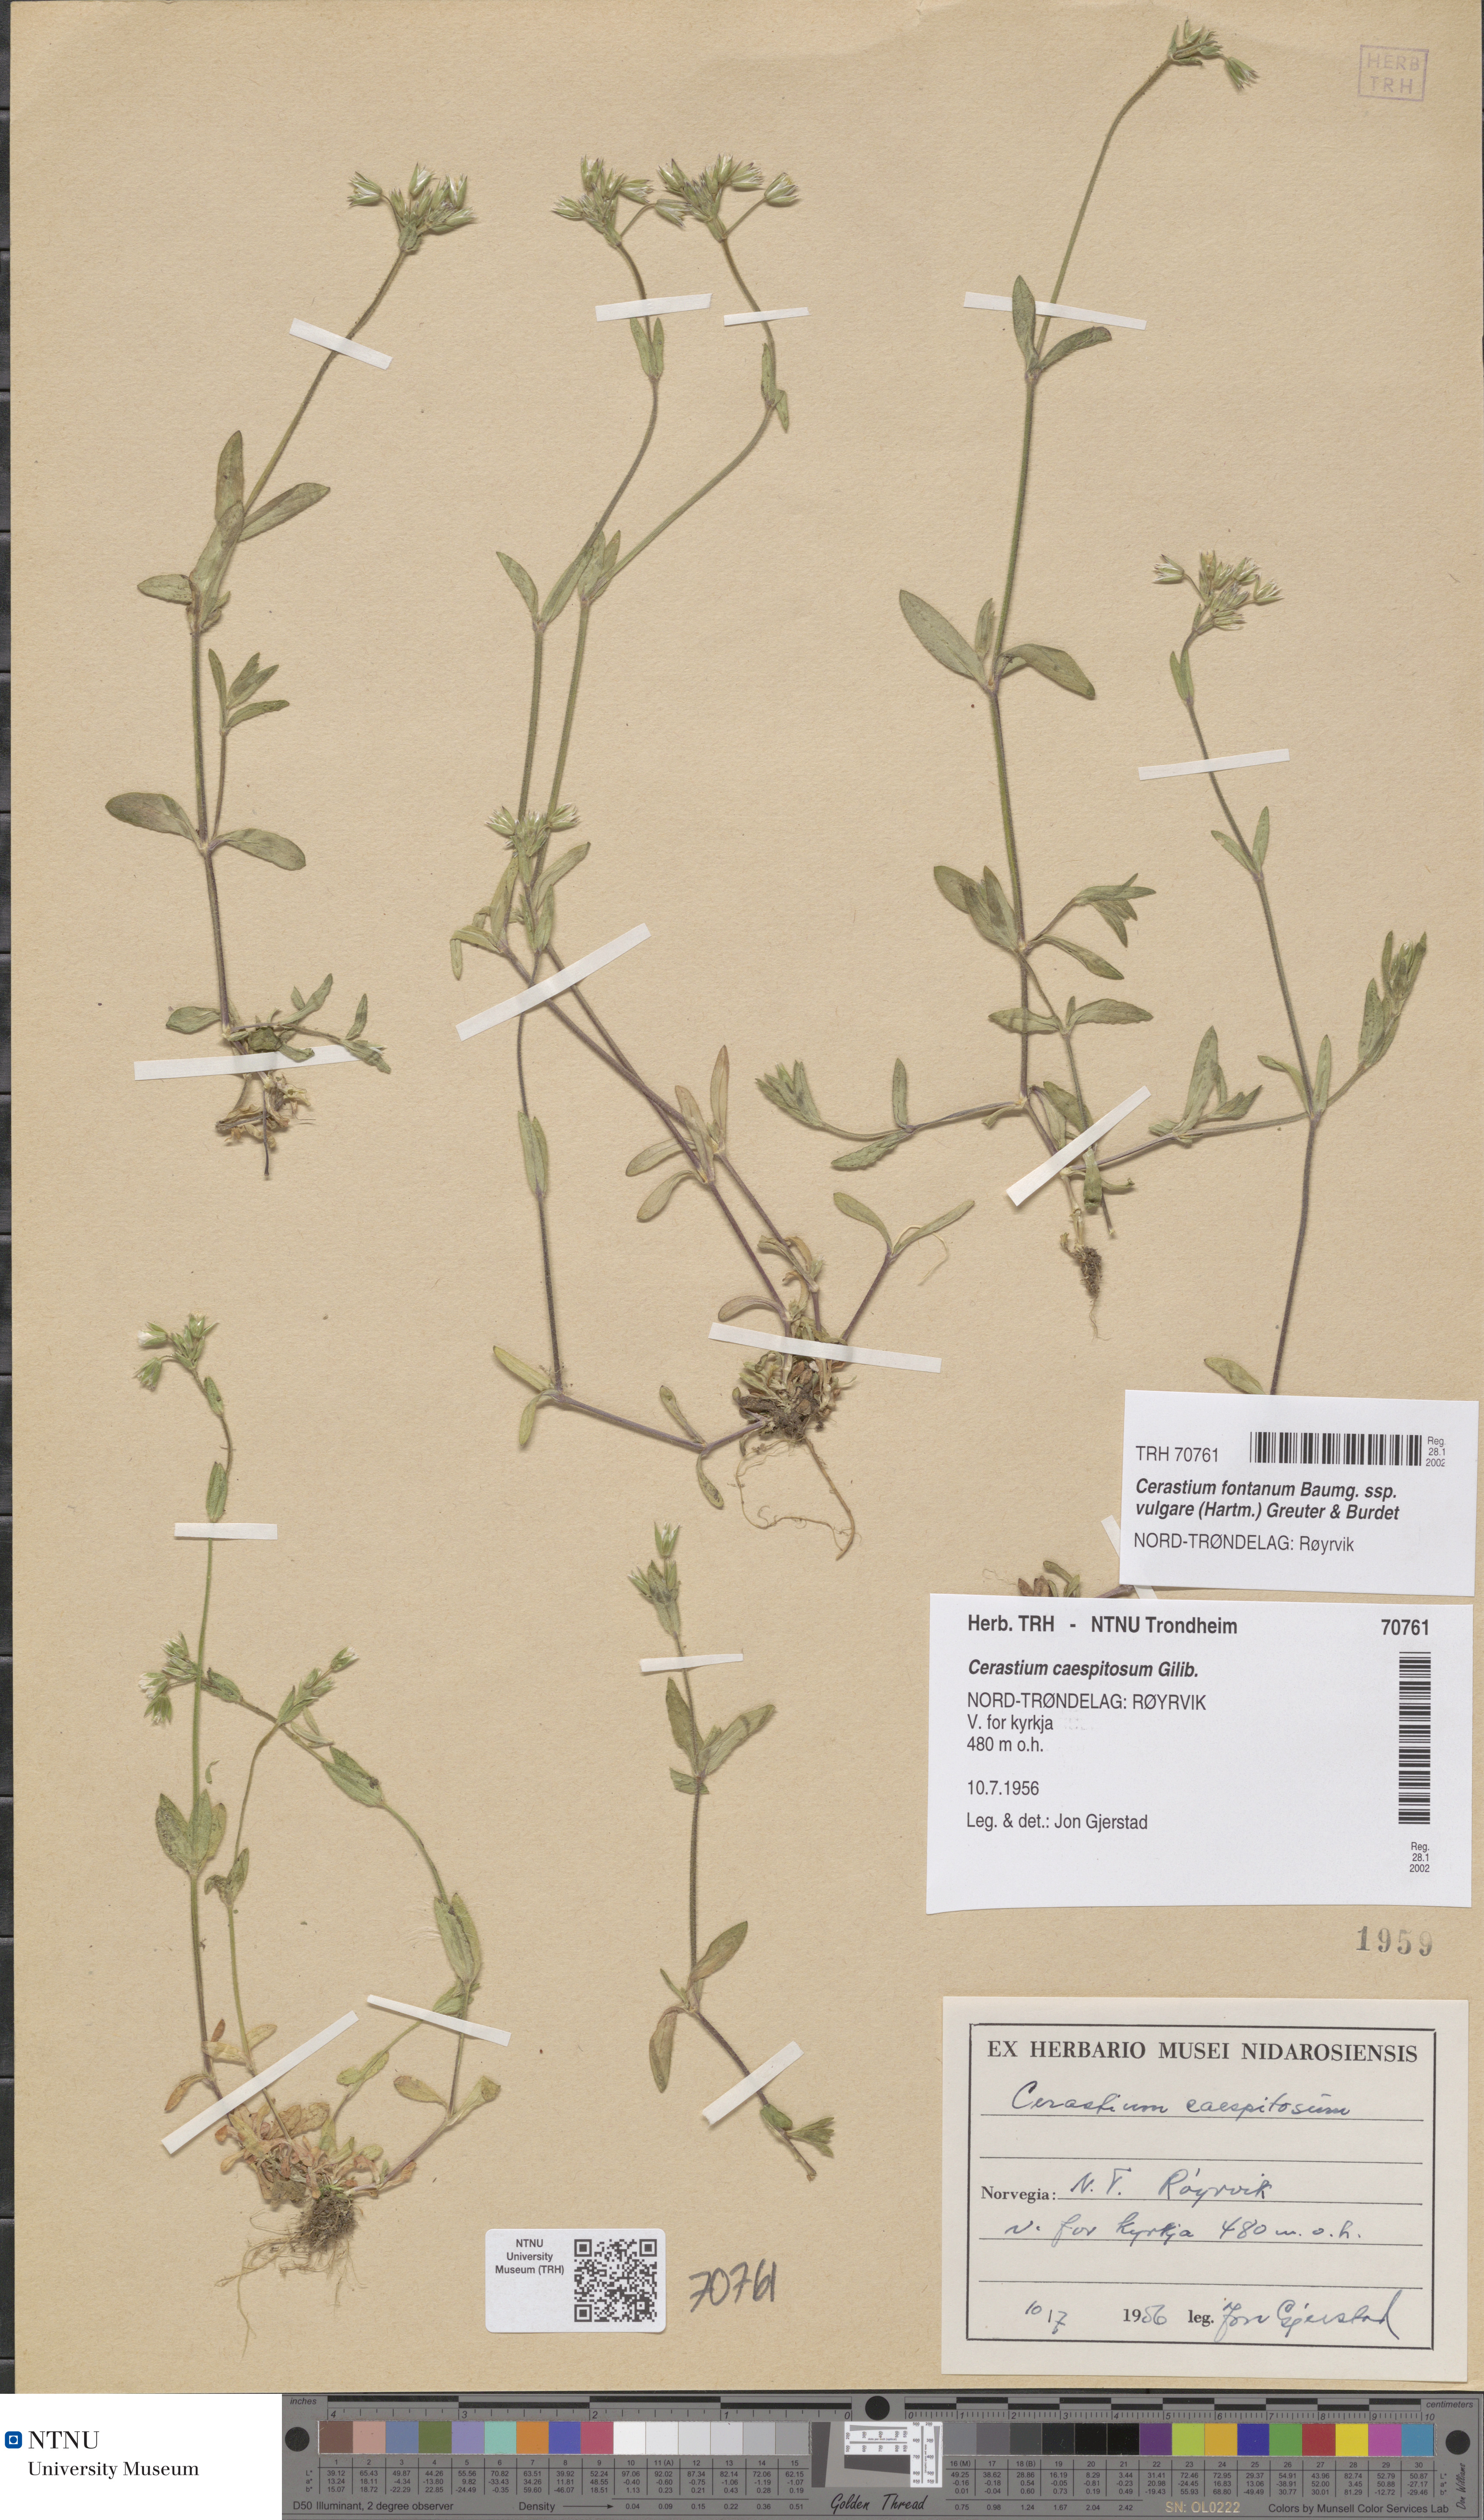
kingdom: Plantae
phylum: Tracheophyta
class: Magnoliopsida
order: Caryophyllales
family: Caryophyllaceae
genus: Cerastium
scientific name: Cerastium holosteoides
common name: Big chickweed
